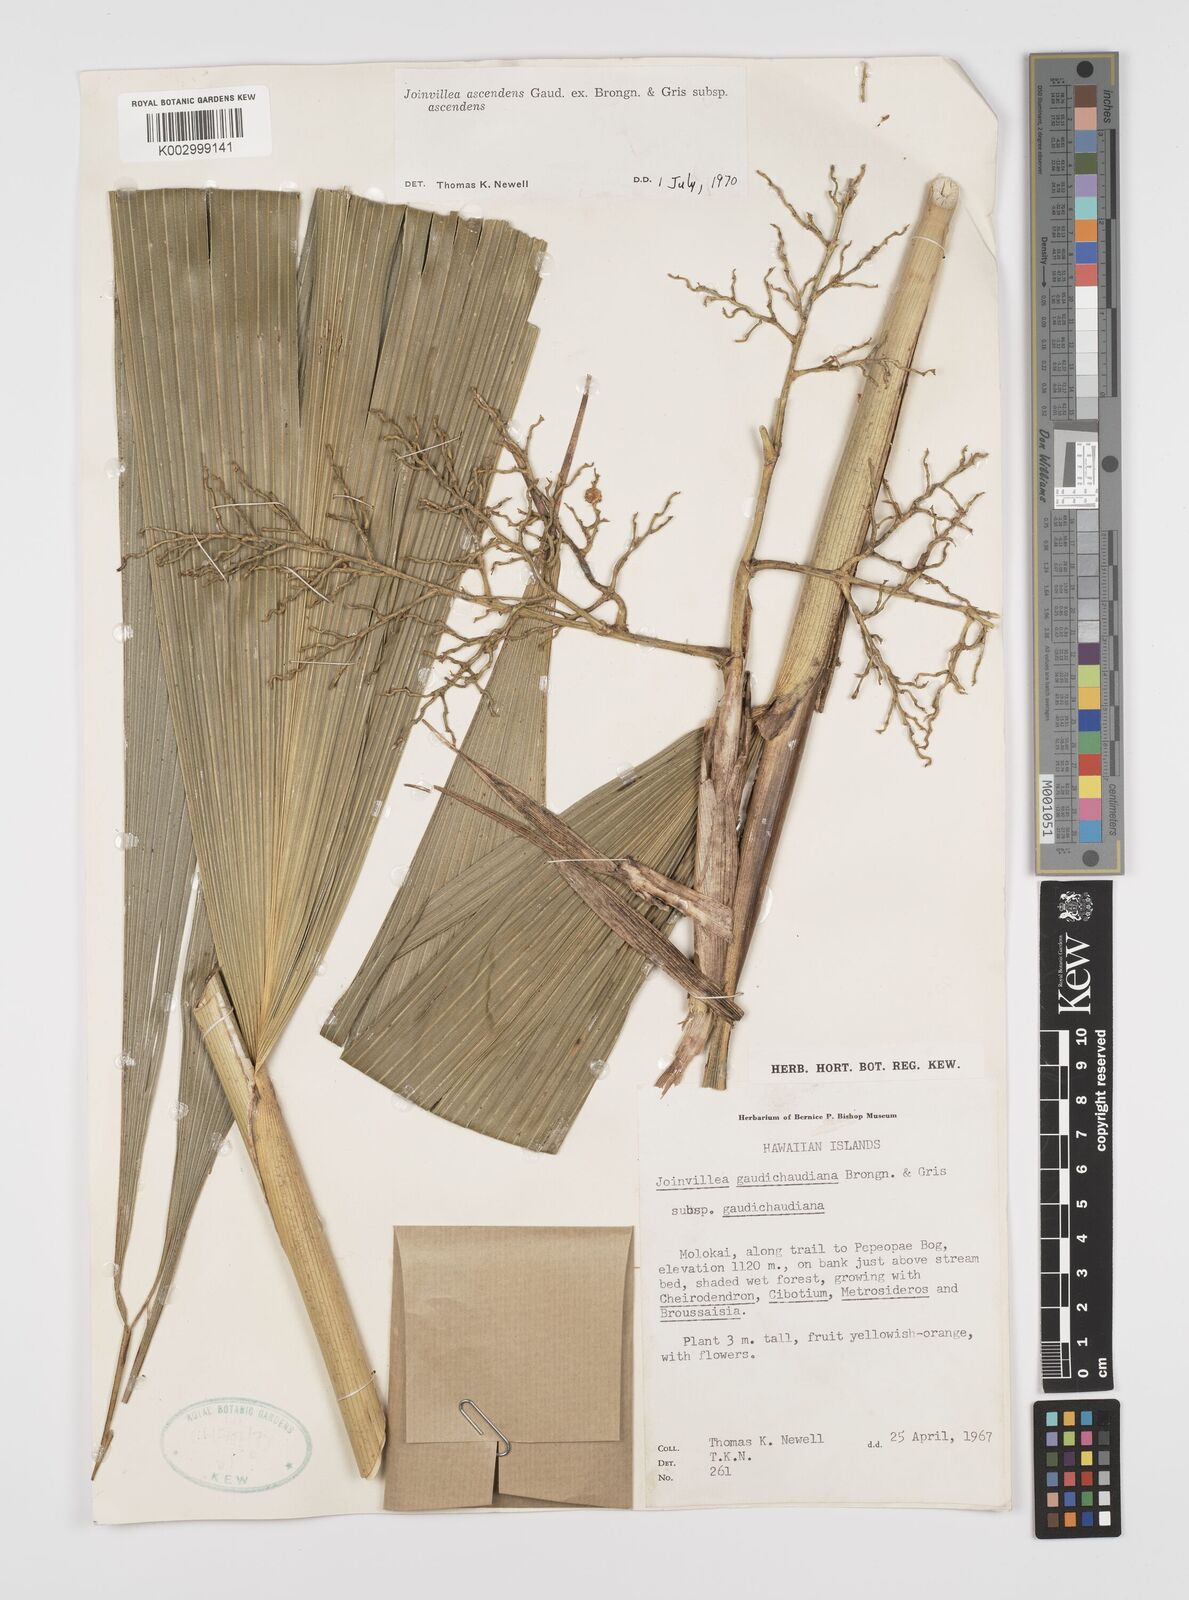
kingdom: Plantae
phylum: Tracheophyta
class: Liliopsida
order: Poales
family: Joinvilleaceae
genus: Joinvillea
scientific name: Joinvillea ascendens
